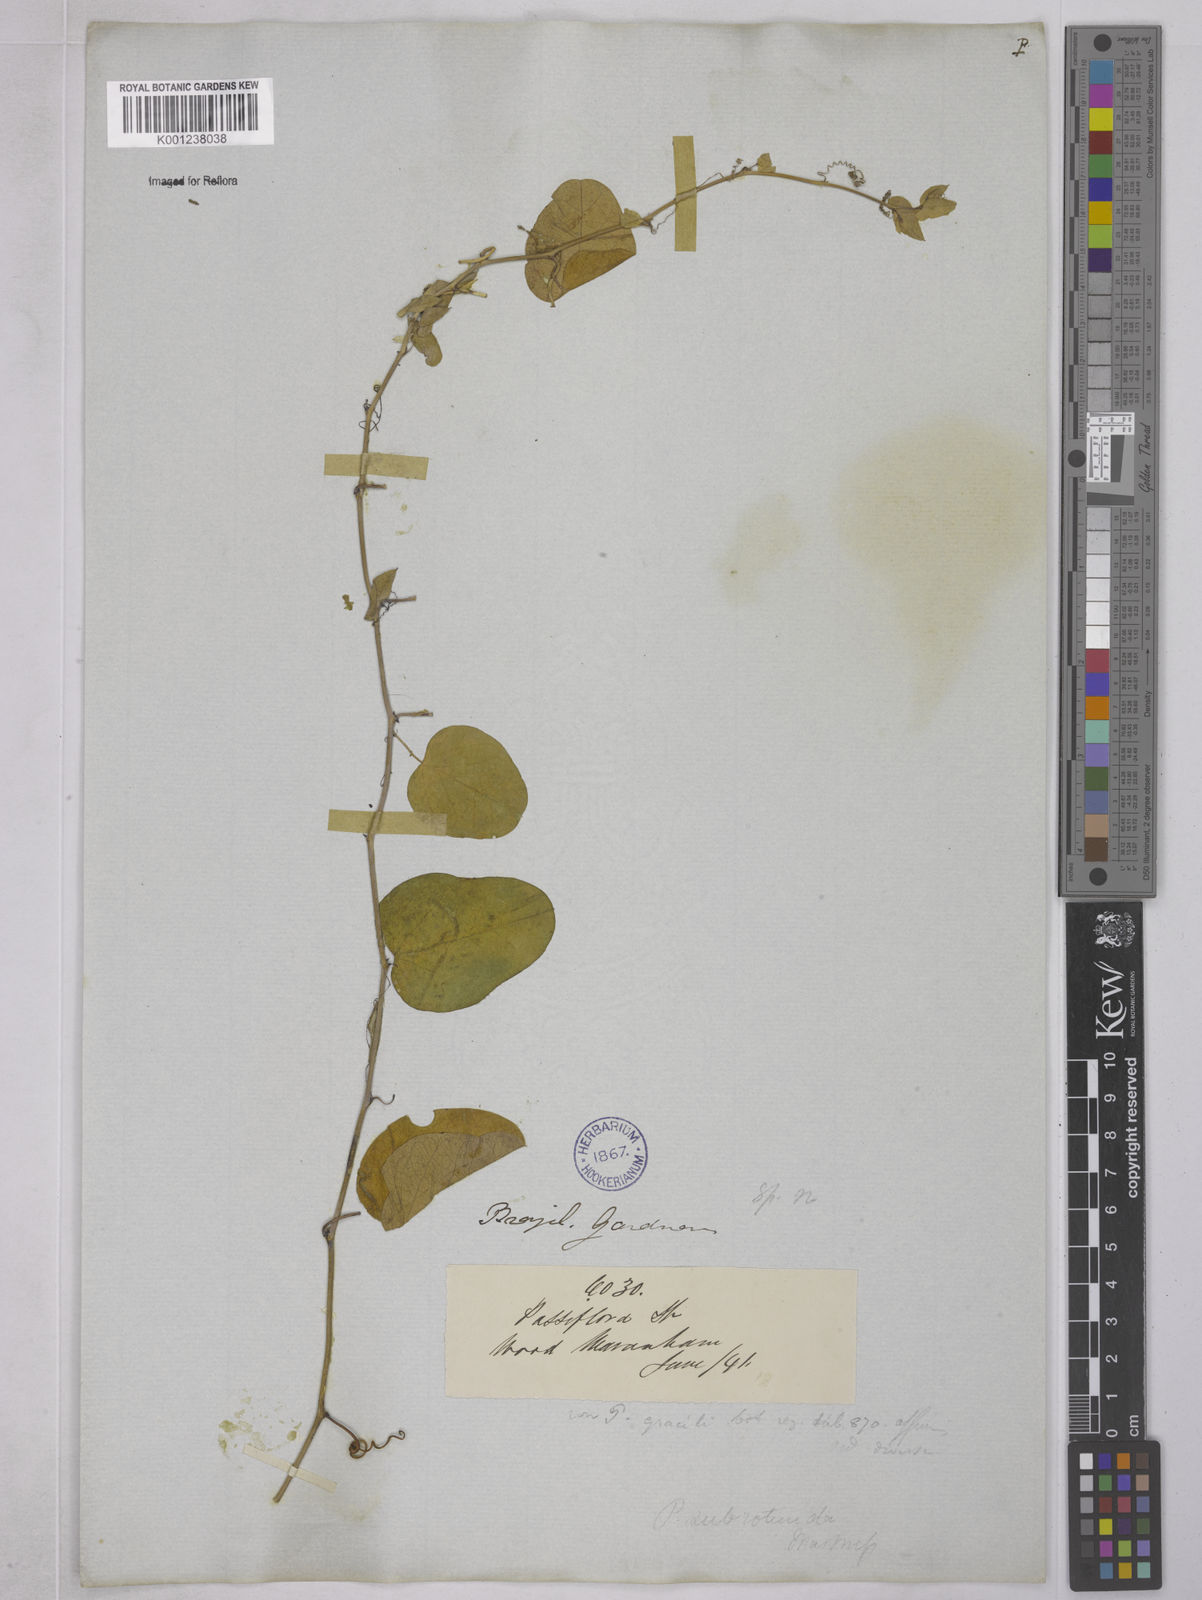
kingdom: Plantae
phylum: Tracheophyta
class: Magnoliopsida
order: Malpighiales
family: Passifloraceae
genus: Passiflora
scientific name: Passiflora subrotunda
